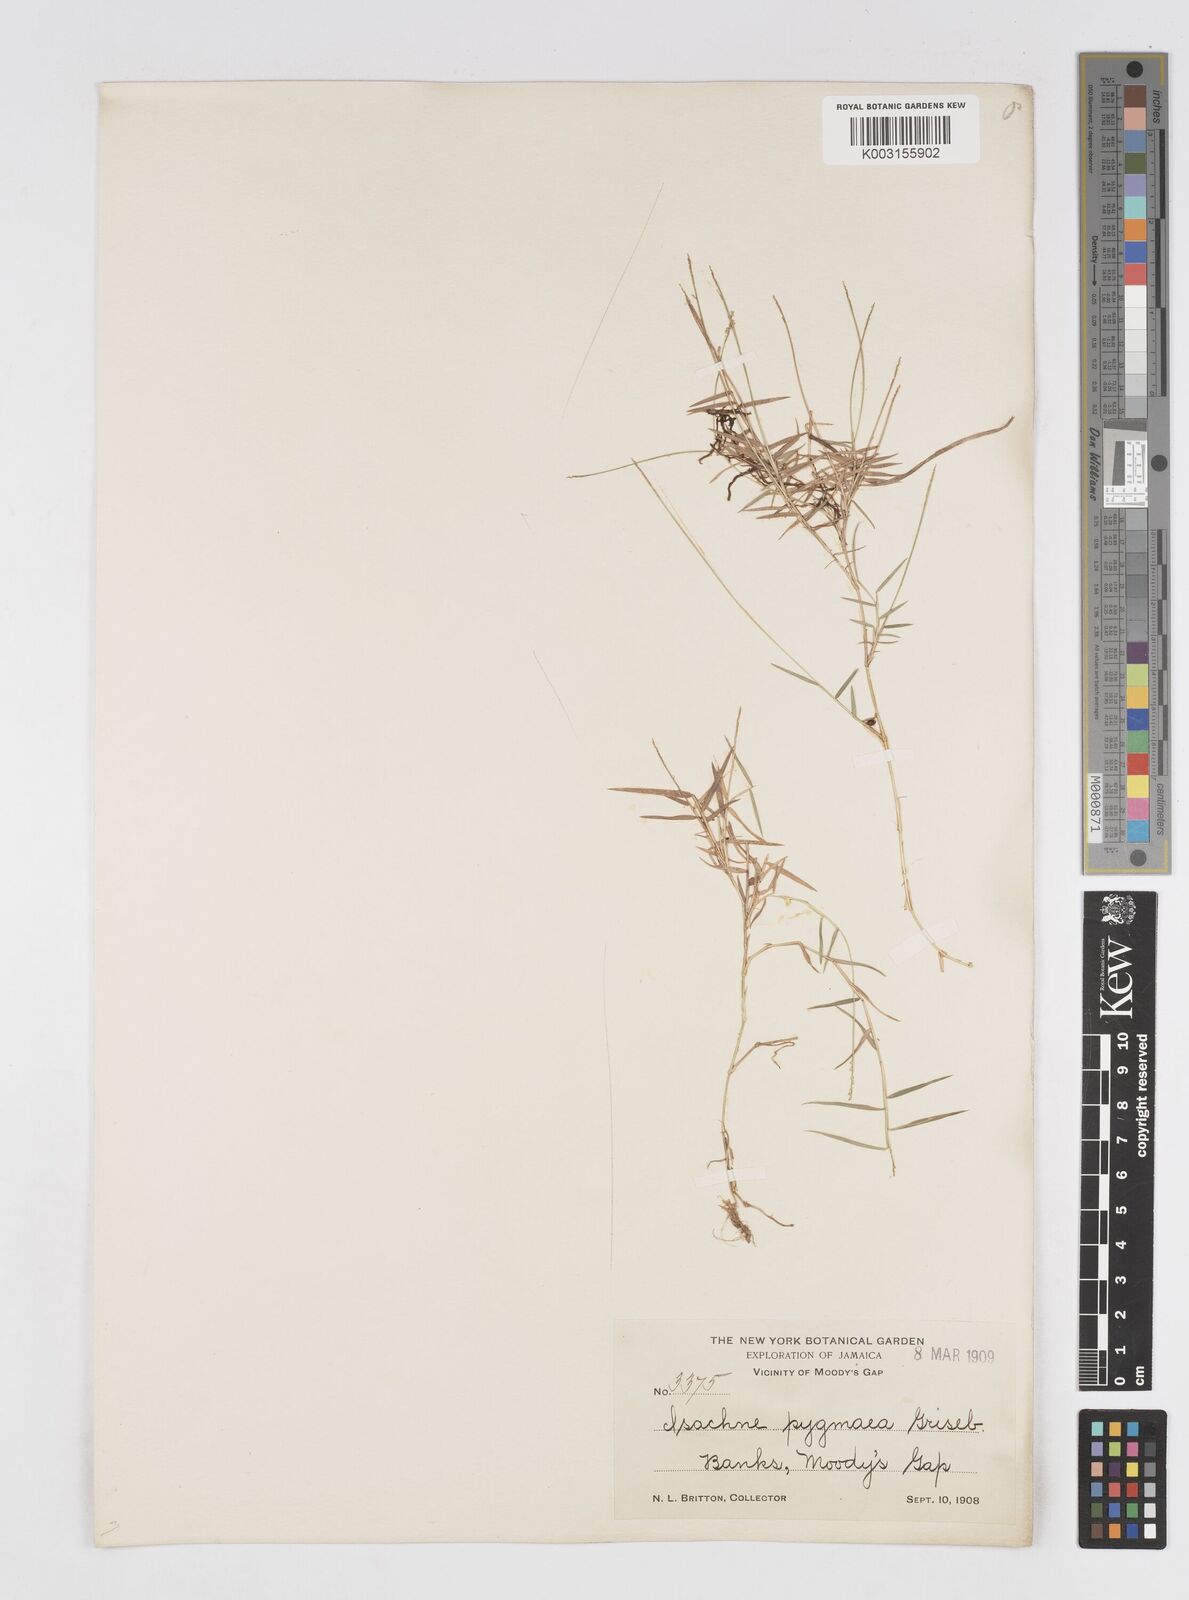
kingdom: Plantae
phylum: Tracheophyta
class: Liliopsida
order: Poales
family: Poaceae
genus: Isachne
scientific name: Isachne pygmaea
